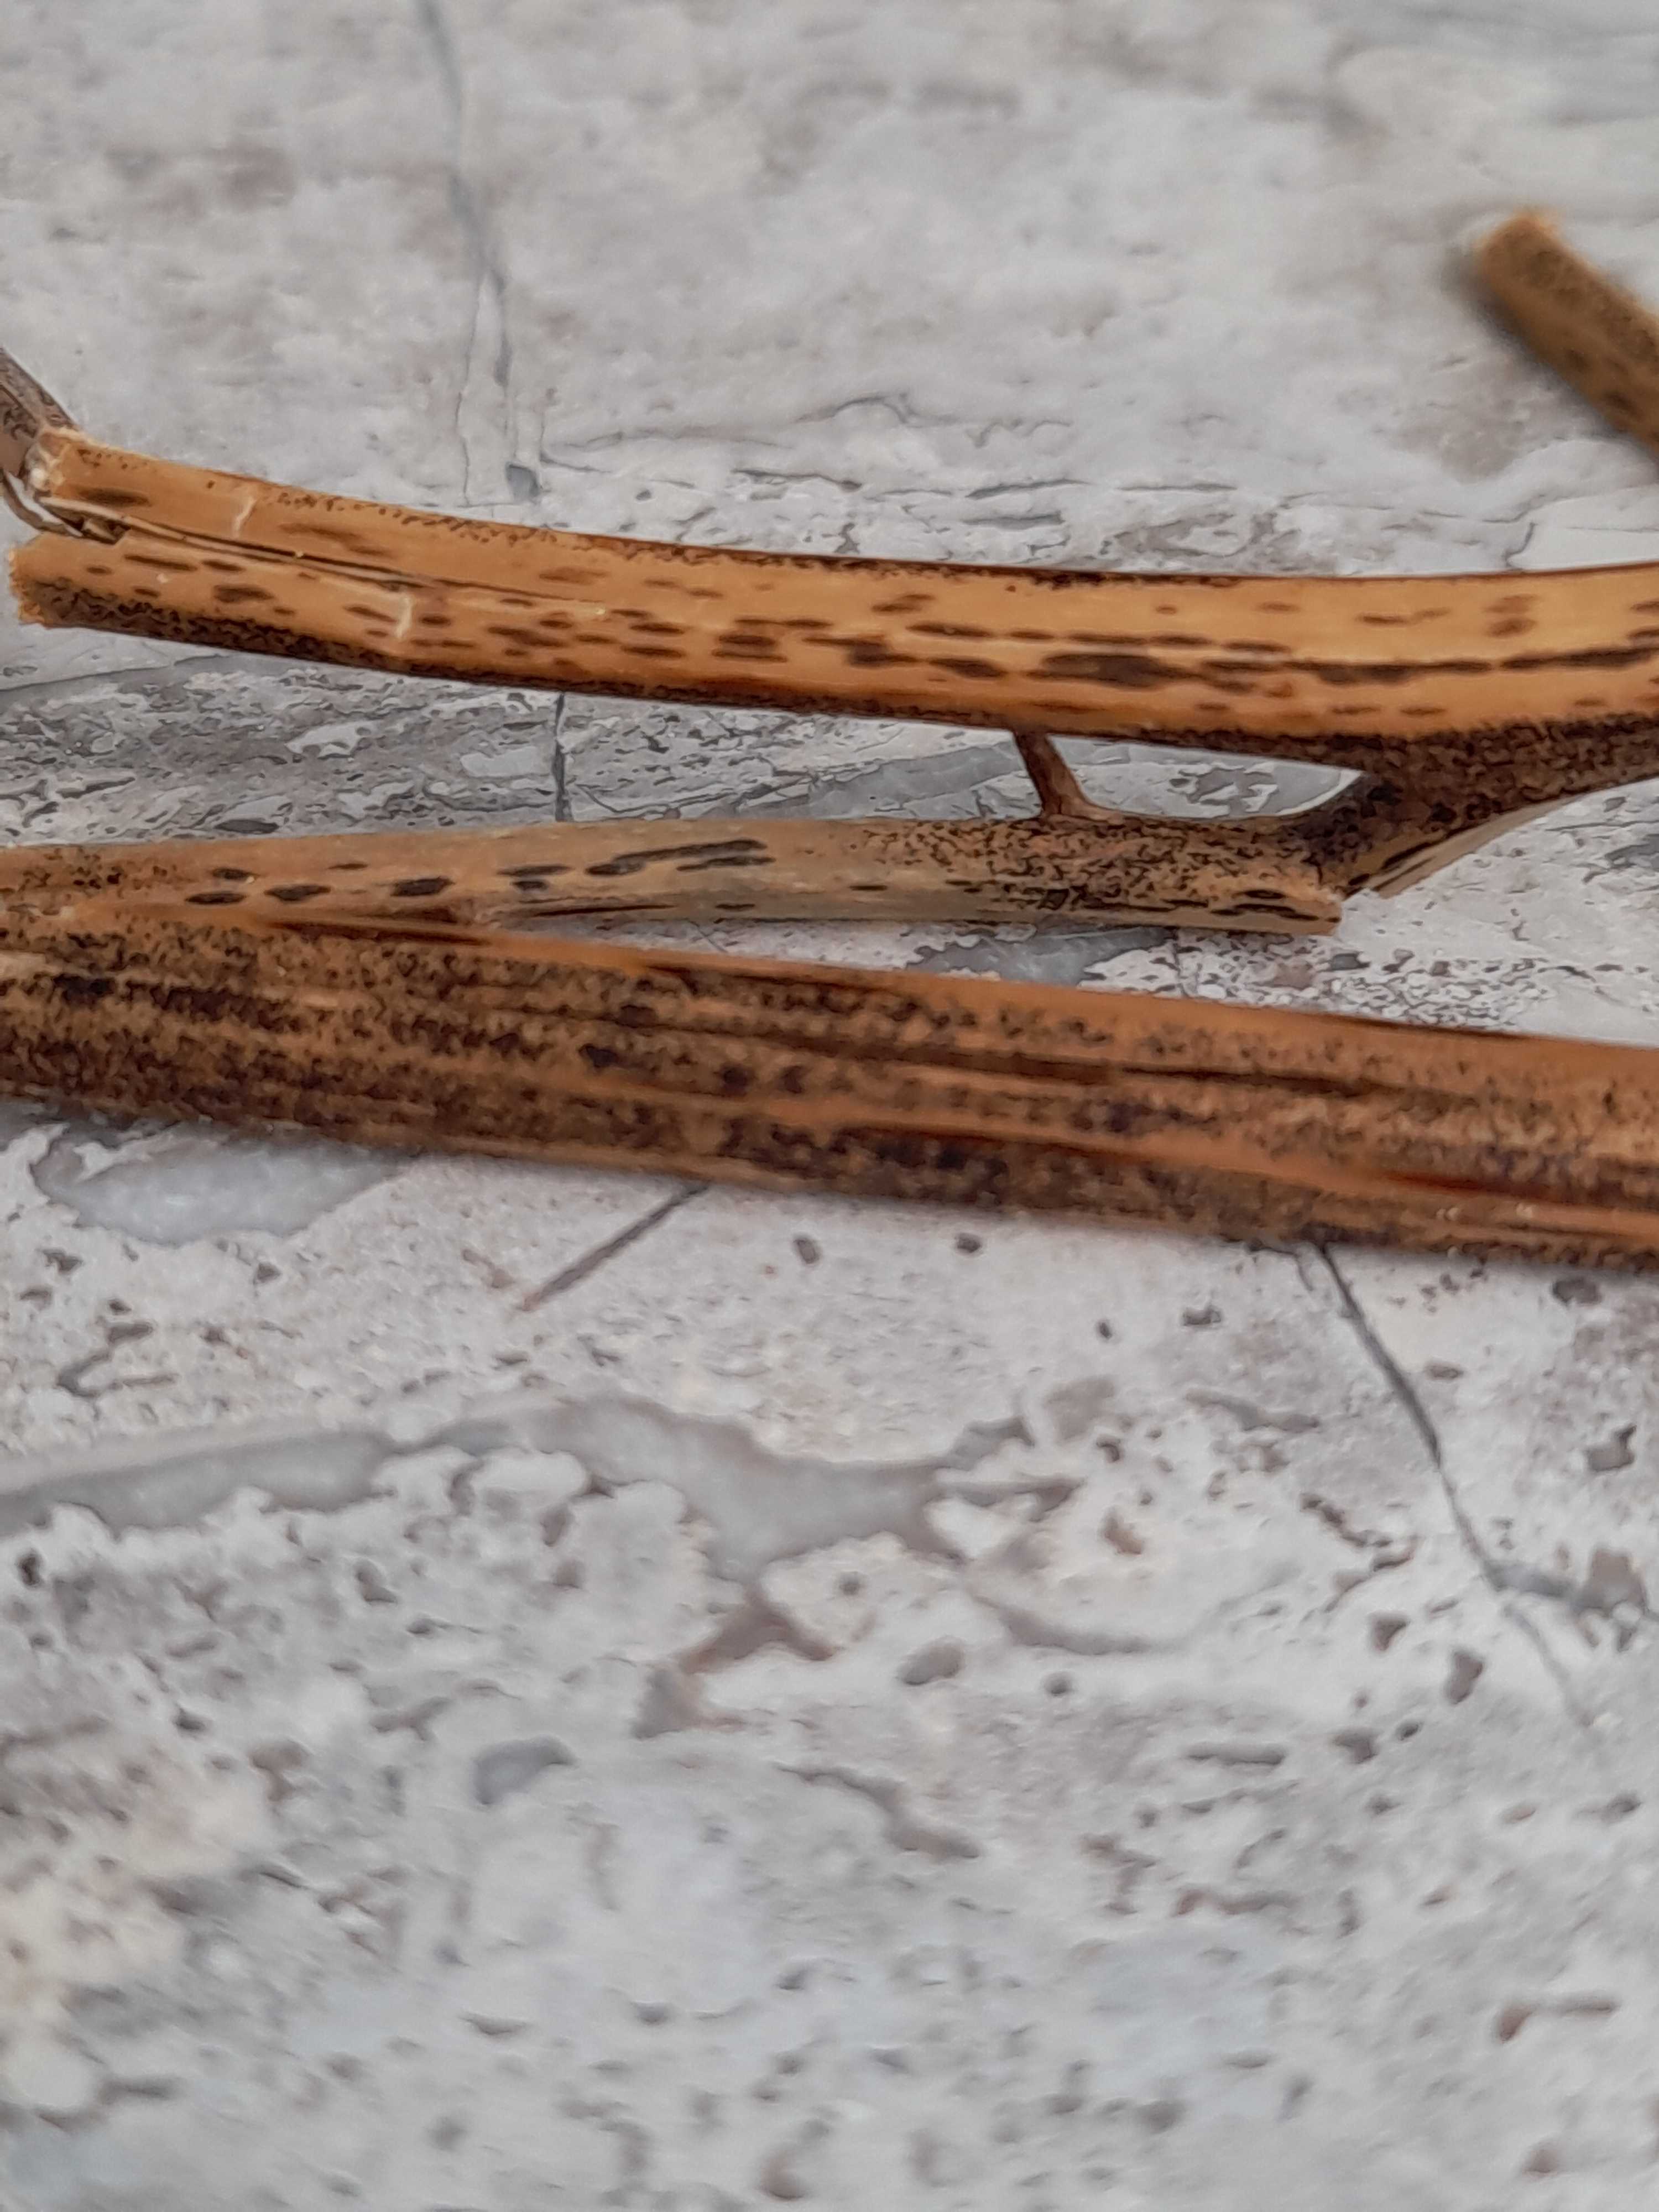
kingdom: Fungi
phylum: Ascomycota
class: Dothideomycetes
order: Pleosporales
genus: Rhopographus
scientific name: Rhopographus filicinus
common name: Bracken map
